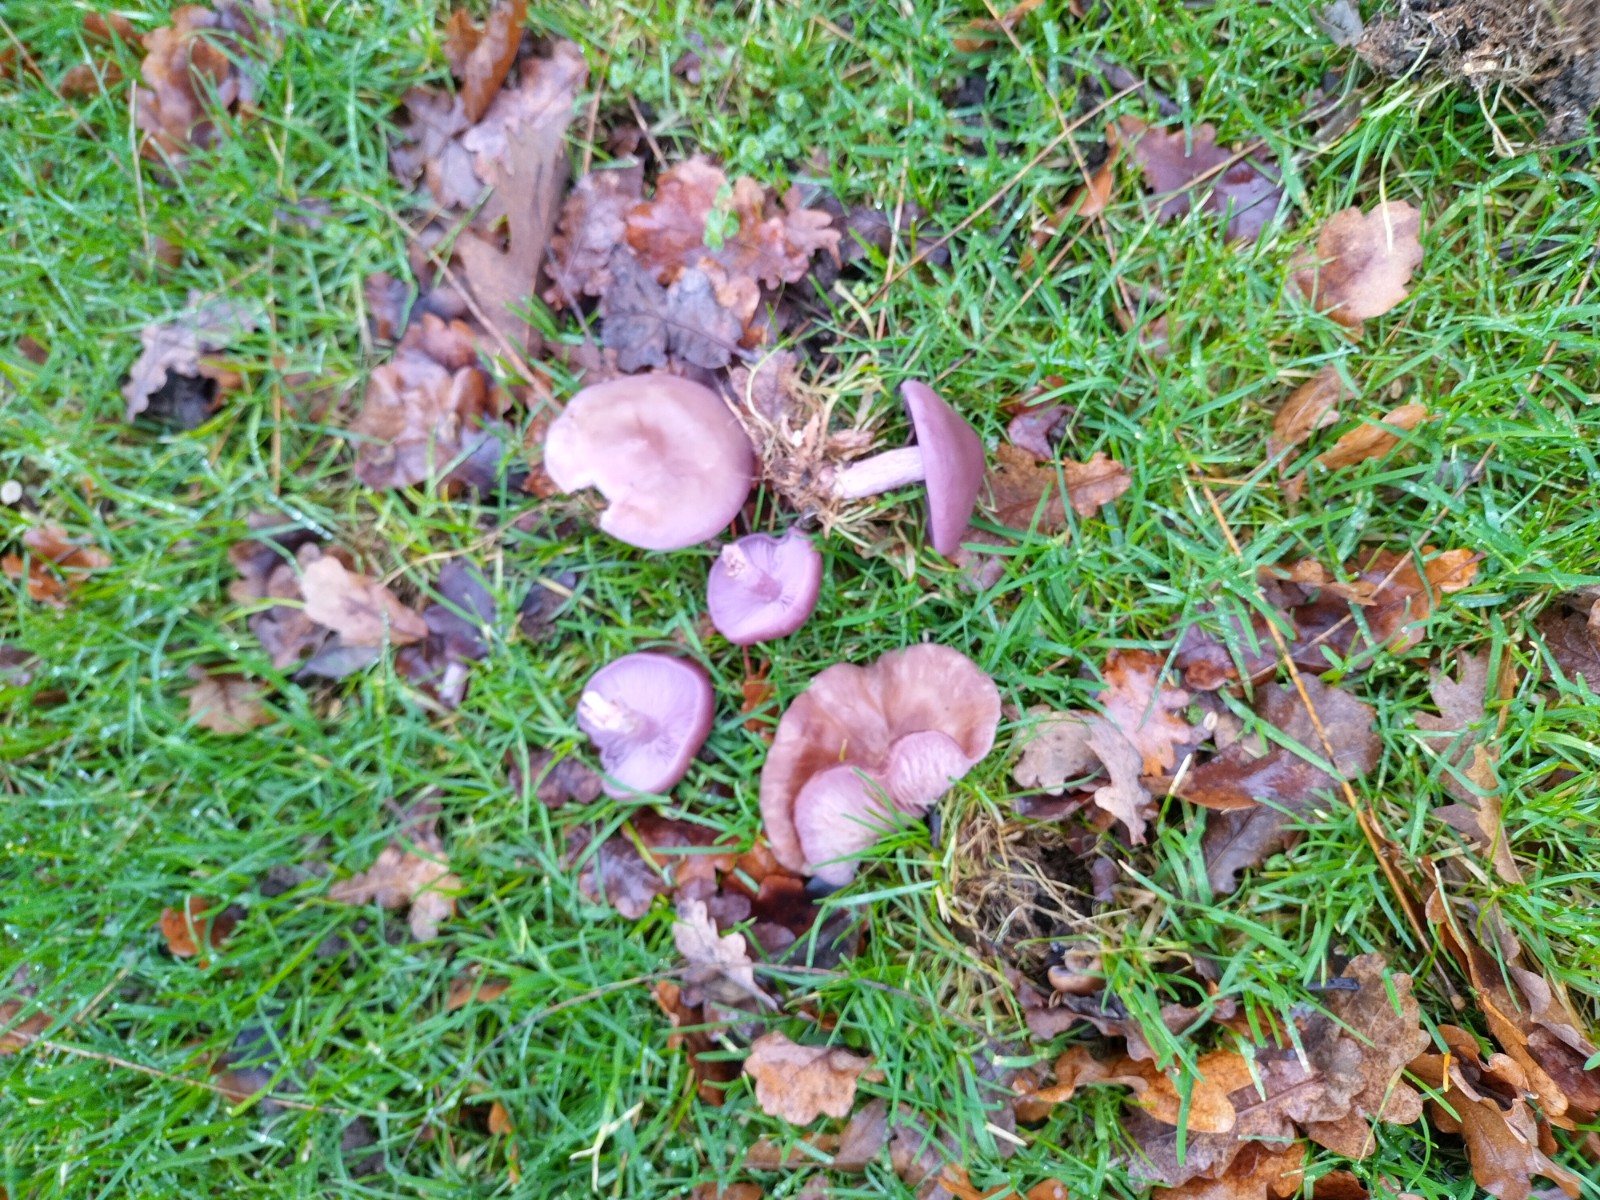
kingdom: Fungi
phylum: Basidiomycota
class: Agaricomycetes
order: Agaricales
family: Tricholomataceae
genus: Lepista
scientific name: Lepista lilacea
